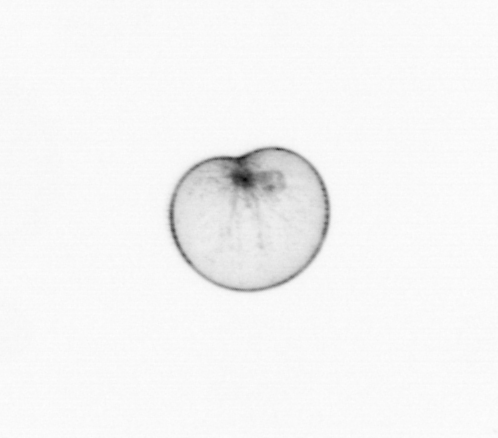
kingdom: Chromista
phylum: Myzozoa
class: Dinophyceae
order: Noctilucales
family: Noctilucaceae
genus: Noctiluca
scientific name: Noctiluca scintillans
